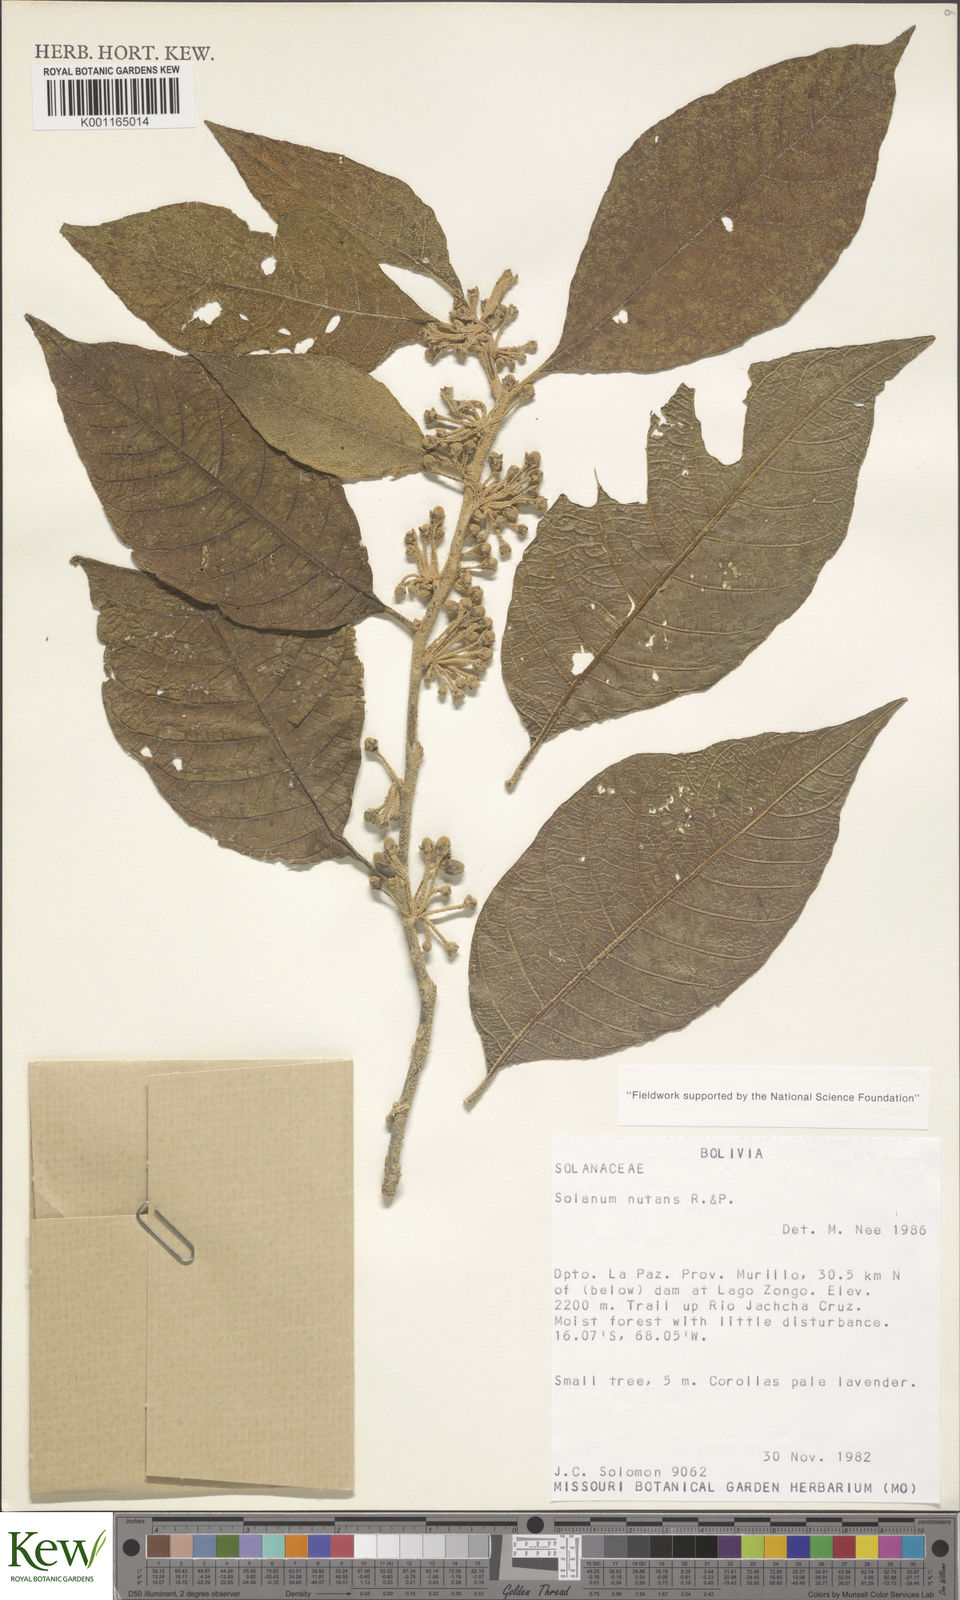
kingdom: Plantae
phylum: Tracheophyta
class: Magnoliopsida
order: Solanales
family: Solanaceae
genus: Solanum
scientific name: Solanum nutans
